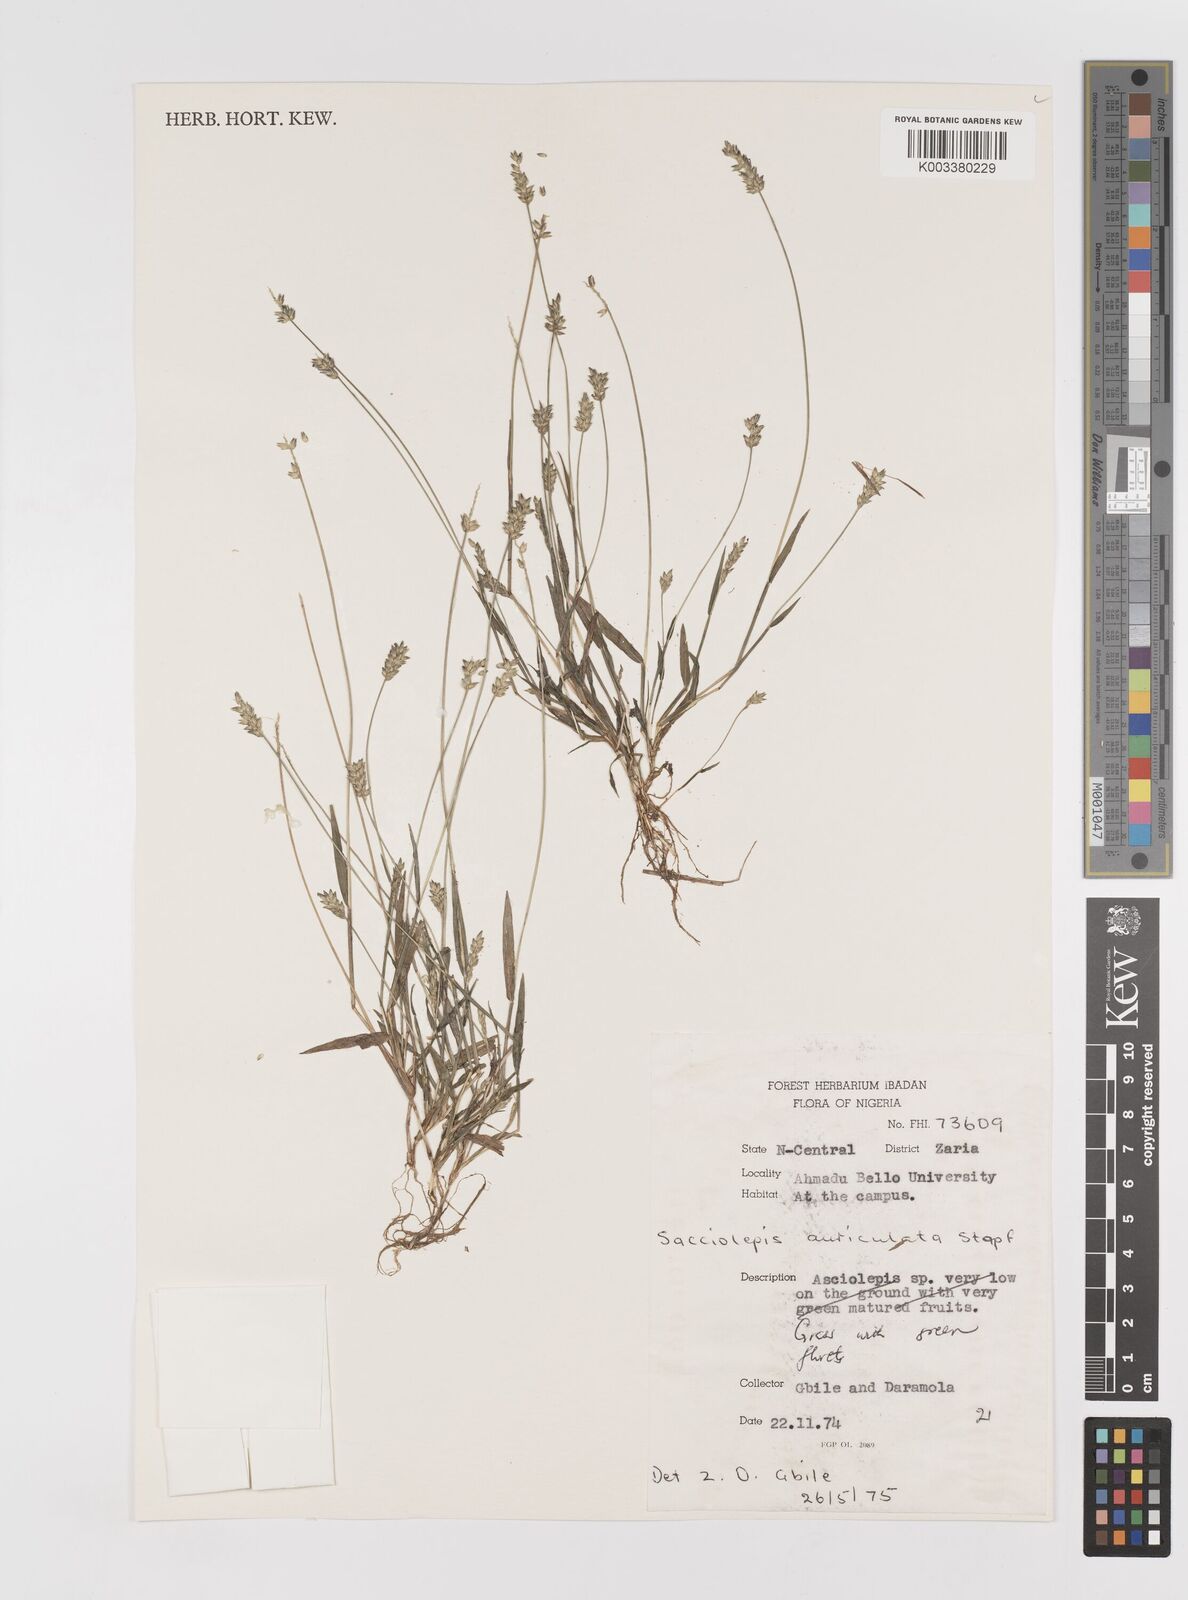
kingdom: Plantae
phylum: Tracheophyta
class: Liliopsida
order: Poales
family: Poaceae
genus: Sacciolepis
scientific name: Sacciolepis indica
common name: Glenwoodgrass
